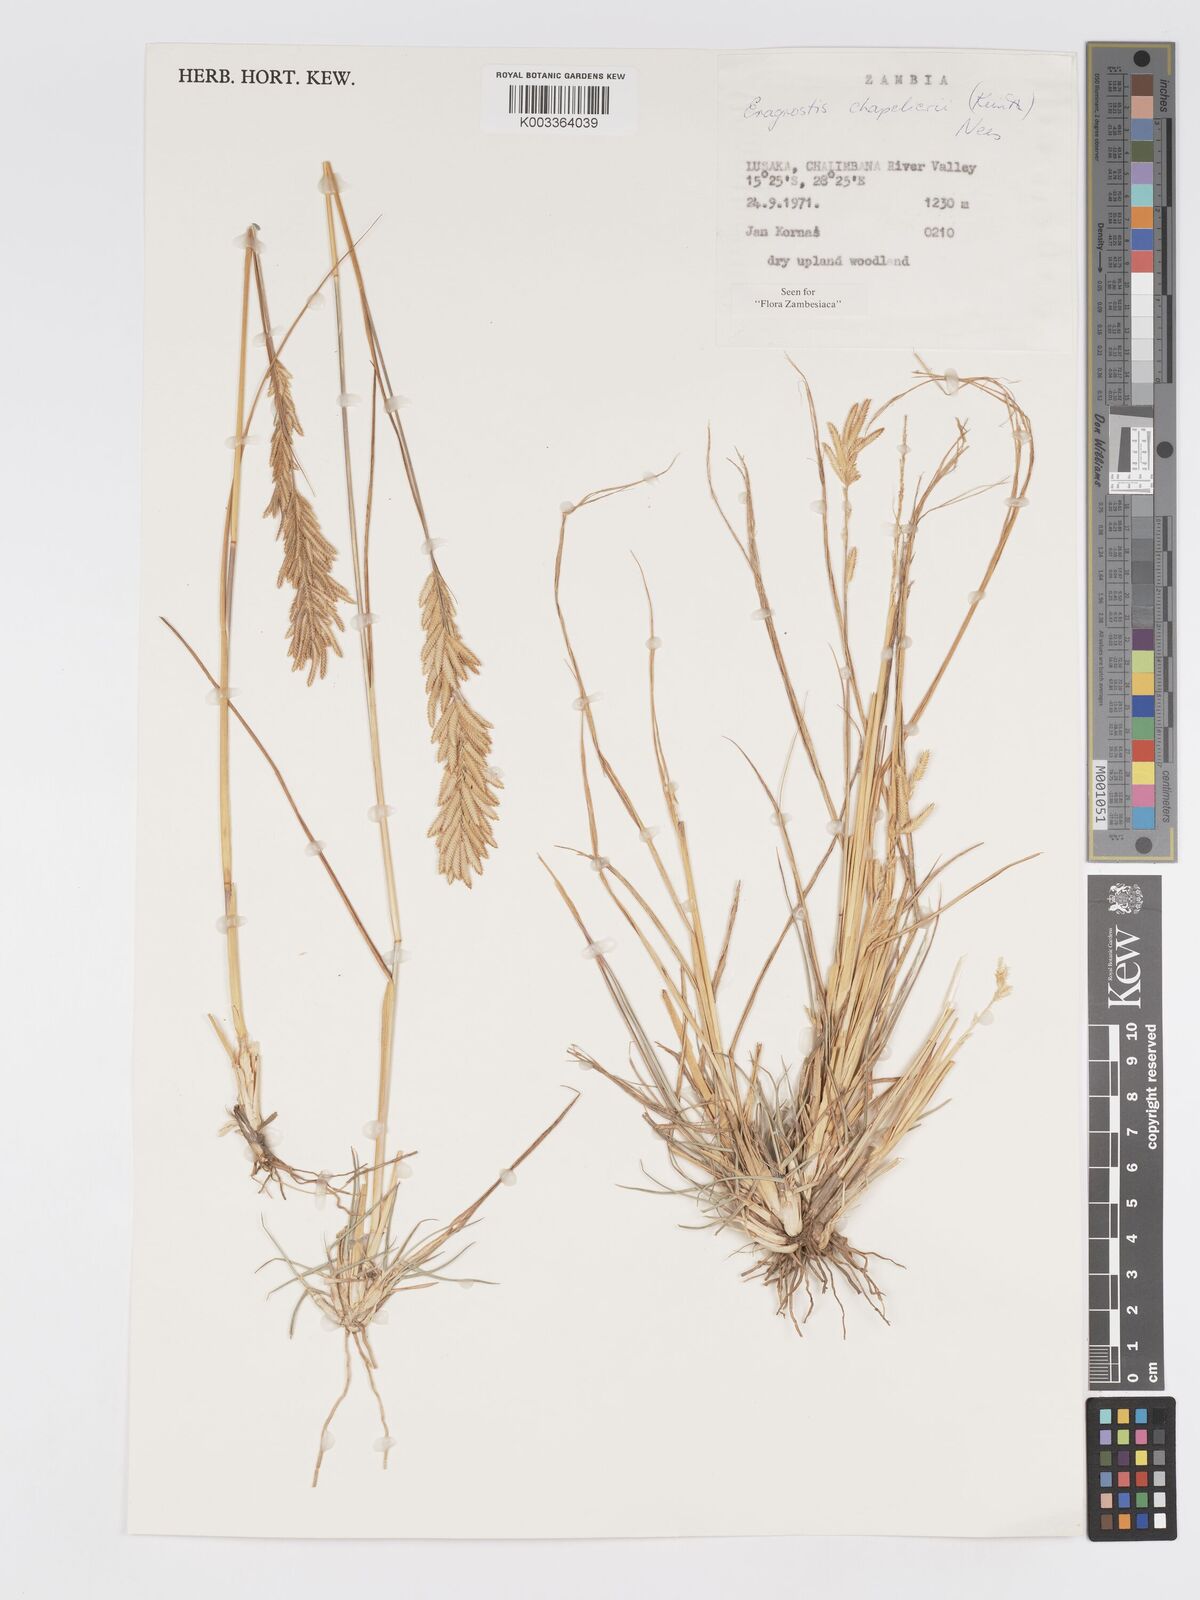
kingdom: Plantae
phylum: Tracheophyta
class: Liliopsida
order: Poales
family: Poaceae
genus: Eragrostis
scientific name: Eragrostis chapelieri
